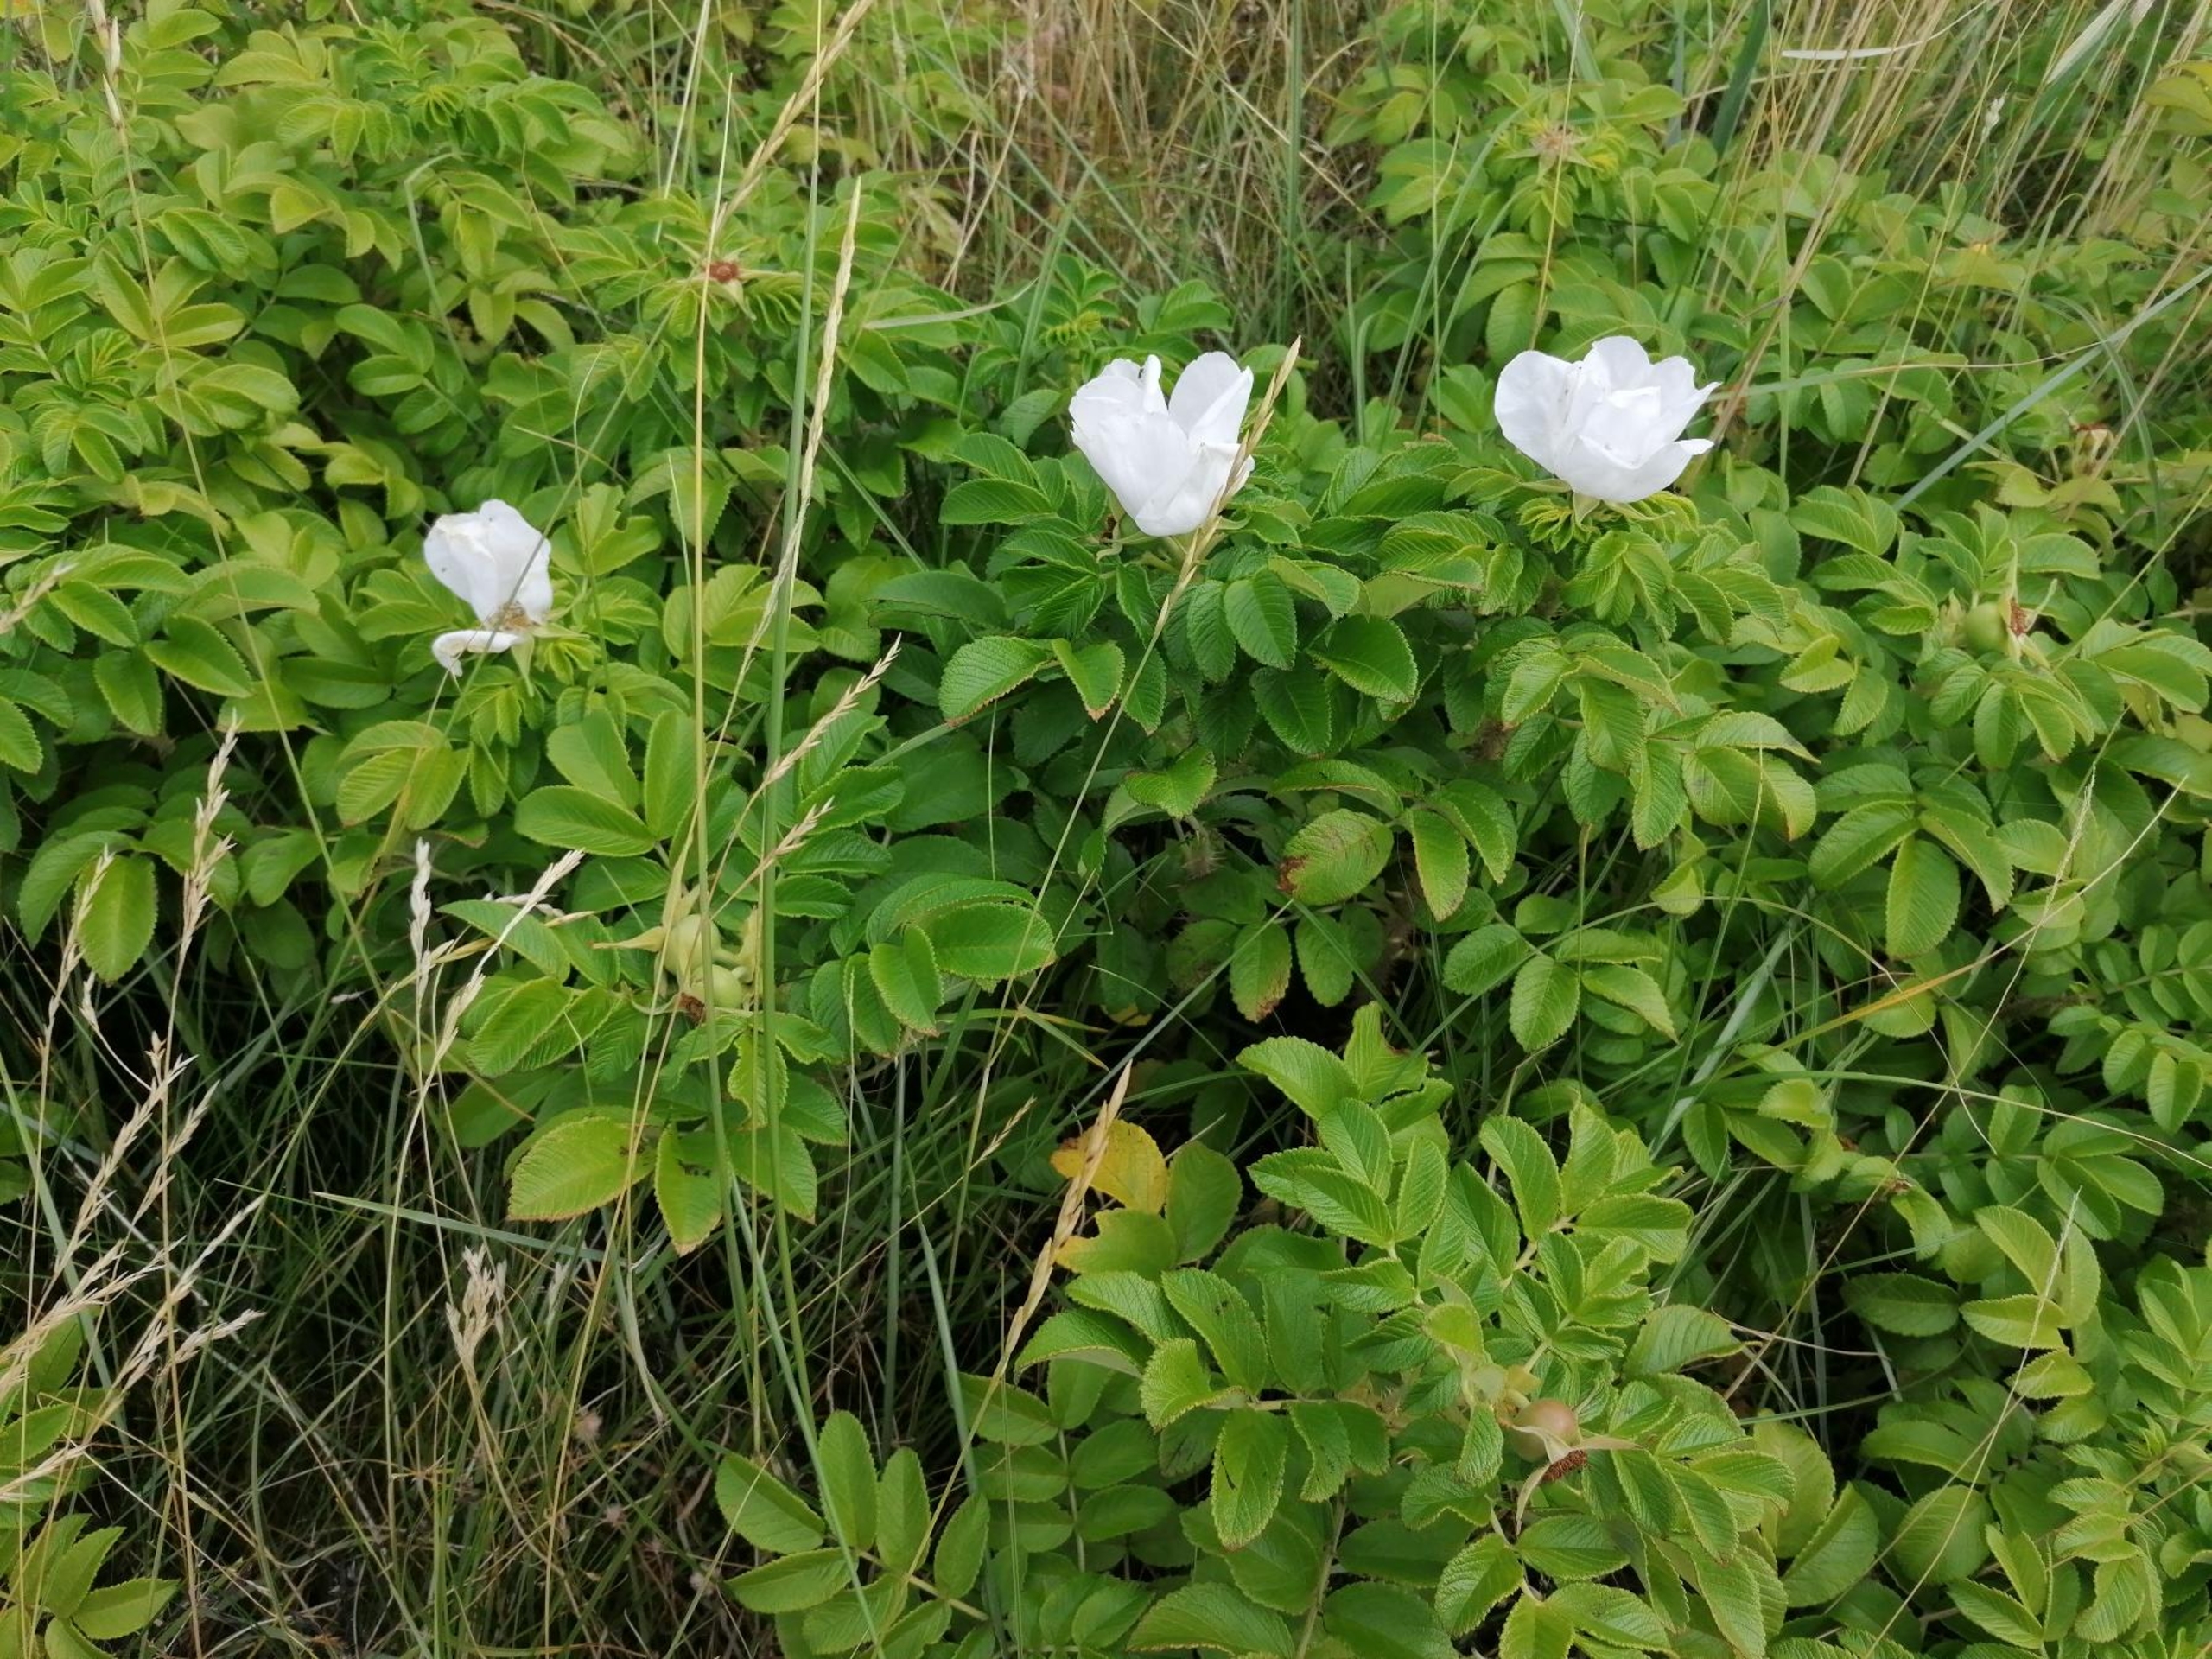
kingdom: Plantae
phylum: Tracheophyta
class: Magnoliopsida
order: Rosales
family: Rosaceae
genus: Rosa
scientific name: Rosa rugosa
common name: Rynket rose
